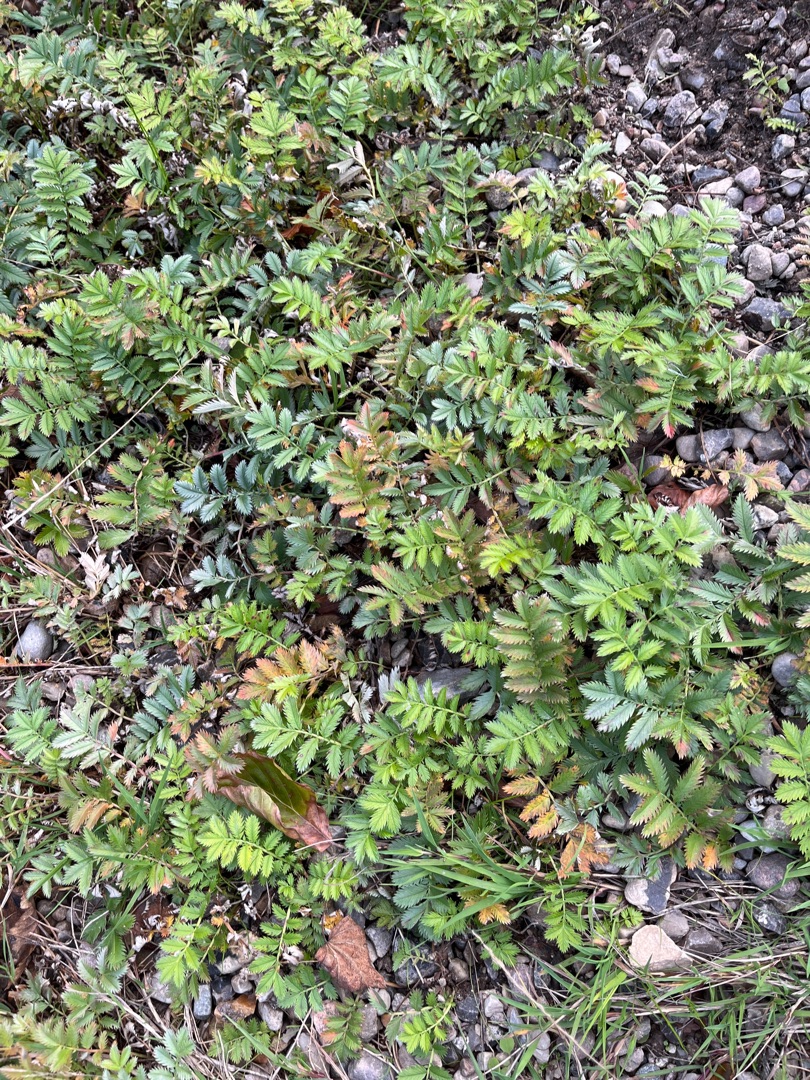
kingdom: Plantae
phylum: Tracheophyta
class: Magnoliopsida
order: Rosales
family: Rosaceae
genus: Argentina
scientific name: Argentina anserina
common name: Gåsepotentil
